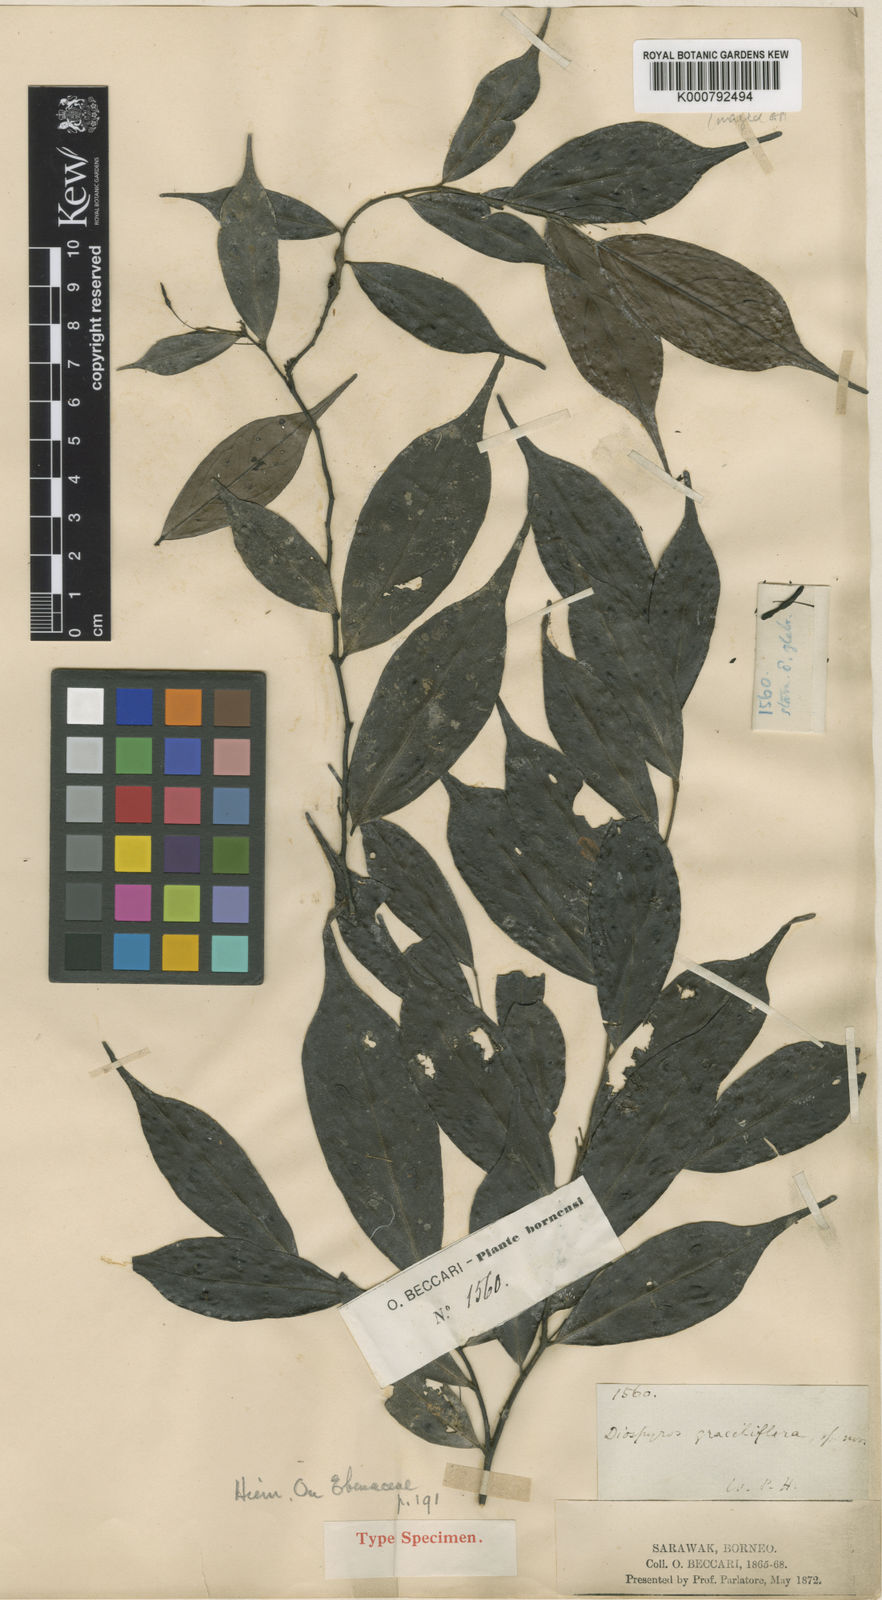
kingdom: Plantae
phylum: Tracheophyta
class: Magnoliopsida
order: Ericales
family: Ebenaceae
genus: Diospyros
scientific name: Diospyros sumatrana
